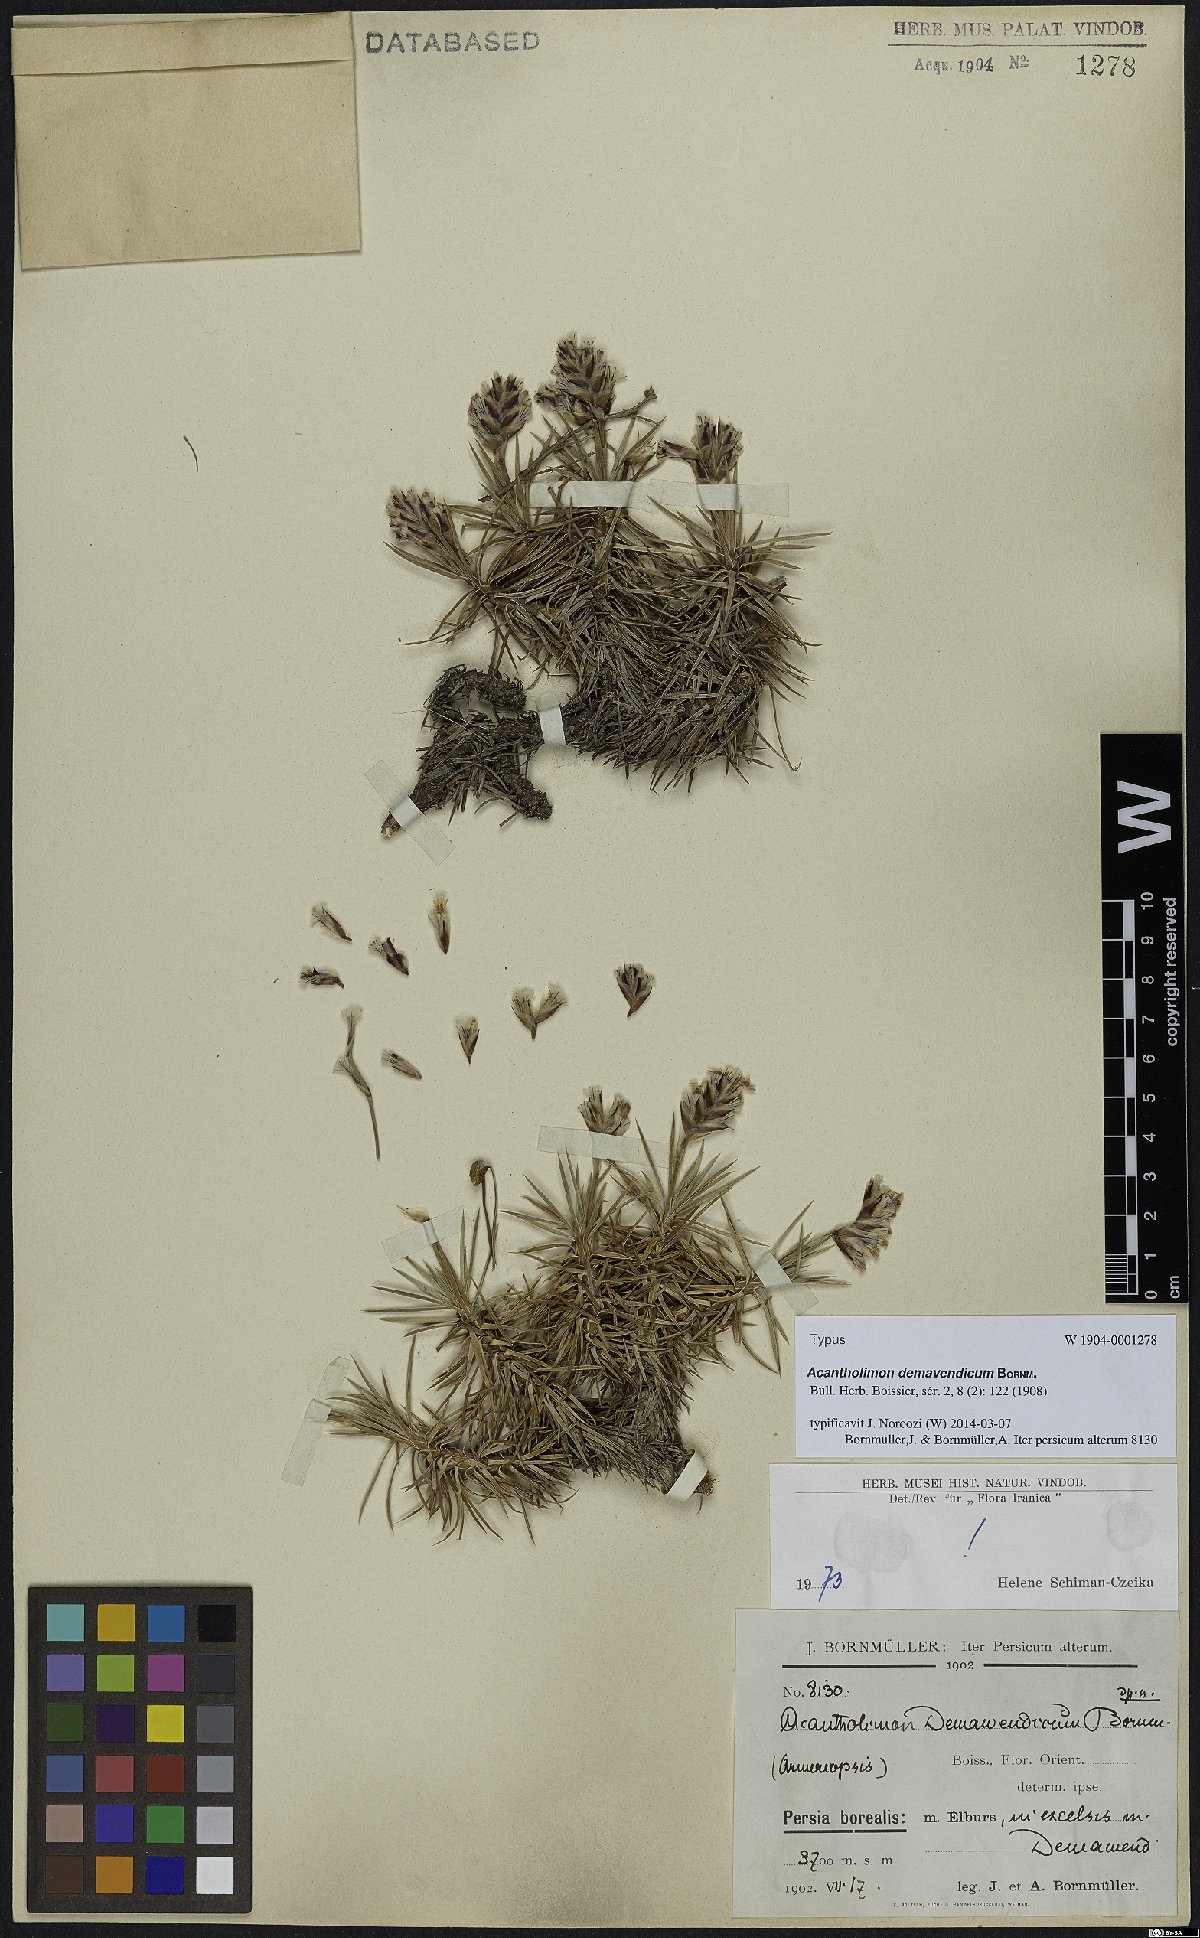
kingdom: Plantae
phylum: Tracheophyta
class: Magnoliopsida
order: Caryophyllales
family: Plumbaginaceae
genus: Acantholimon
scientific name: Acantholimon demavendicum
